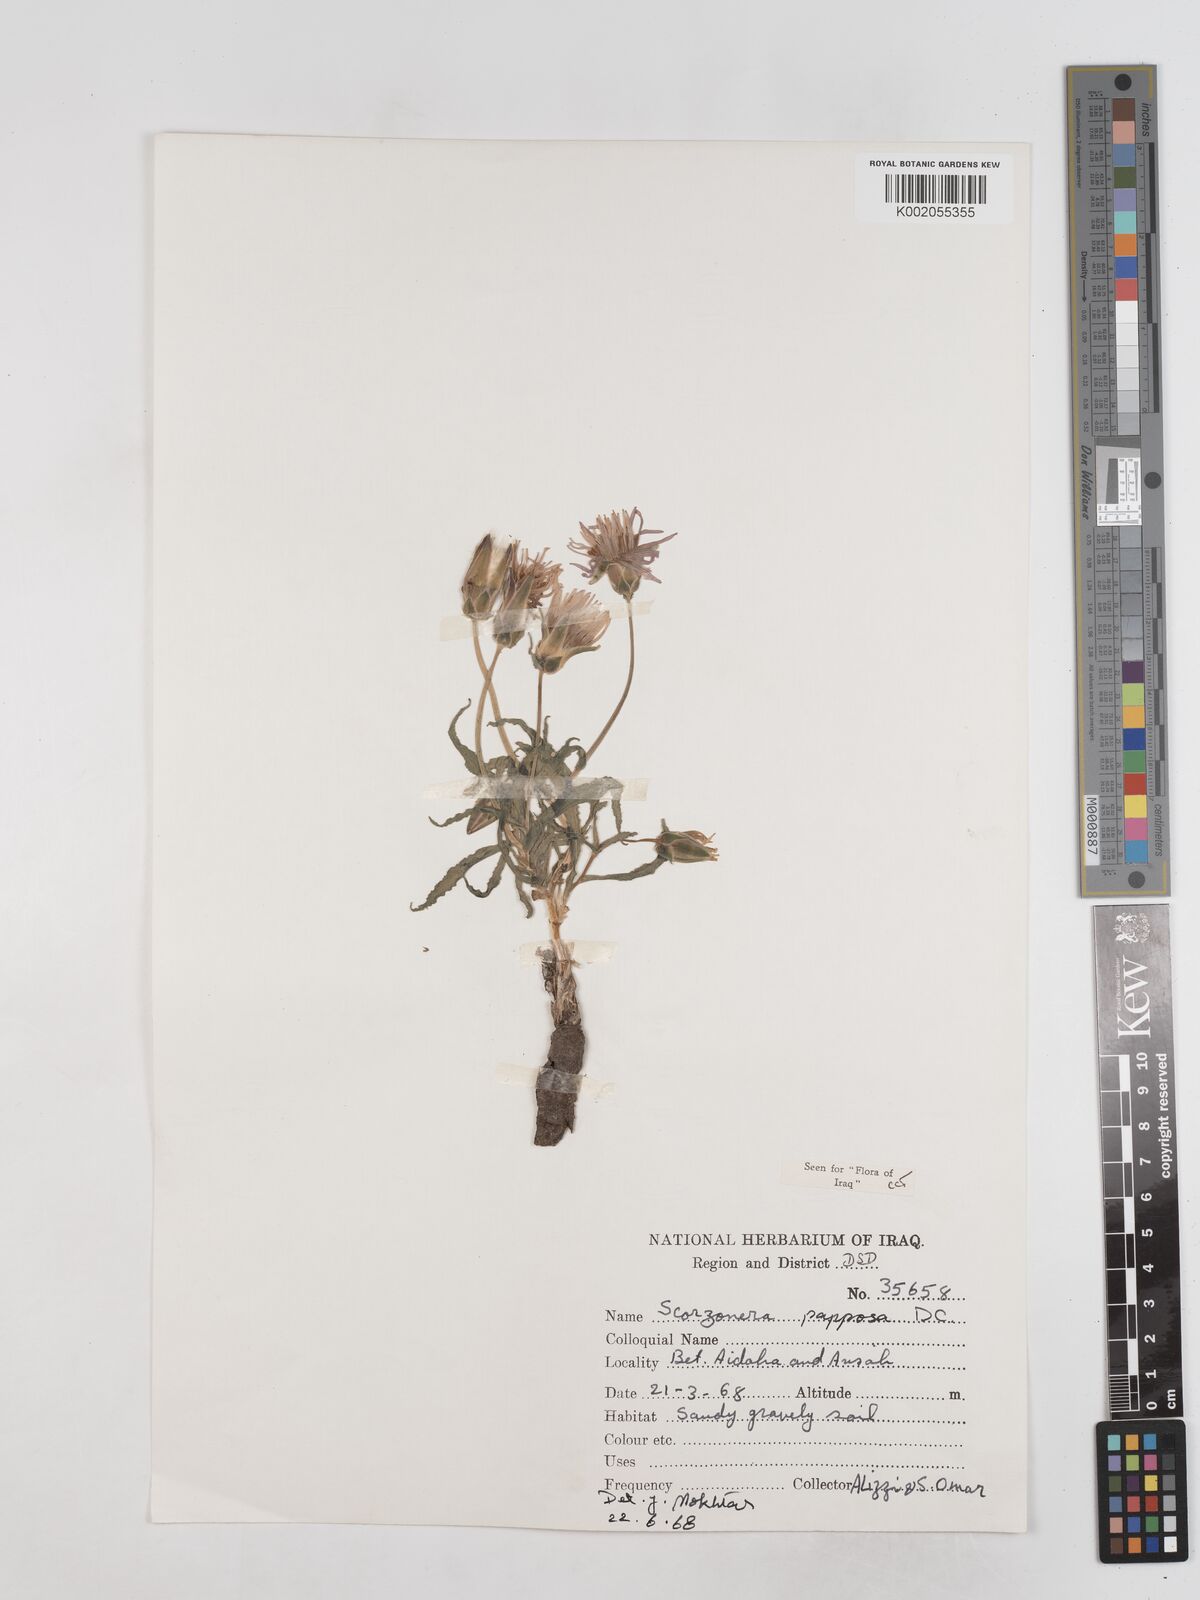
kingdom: Plantae
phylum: Tracheophyta
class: Magnoliopsida
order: Asterales
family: Asteraceae
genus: Pseudopodospermum
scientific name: Pseudopodospermum papposum
